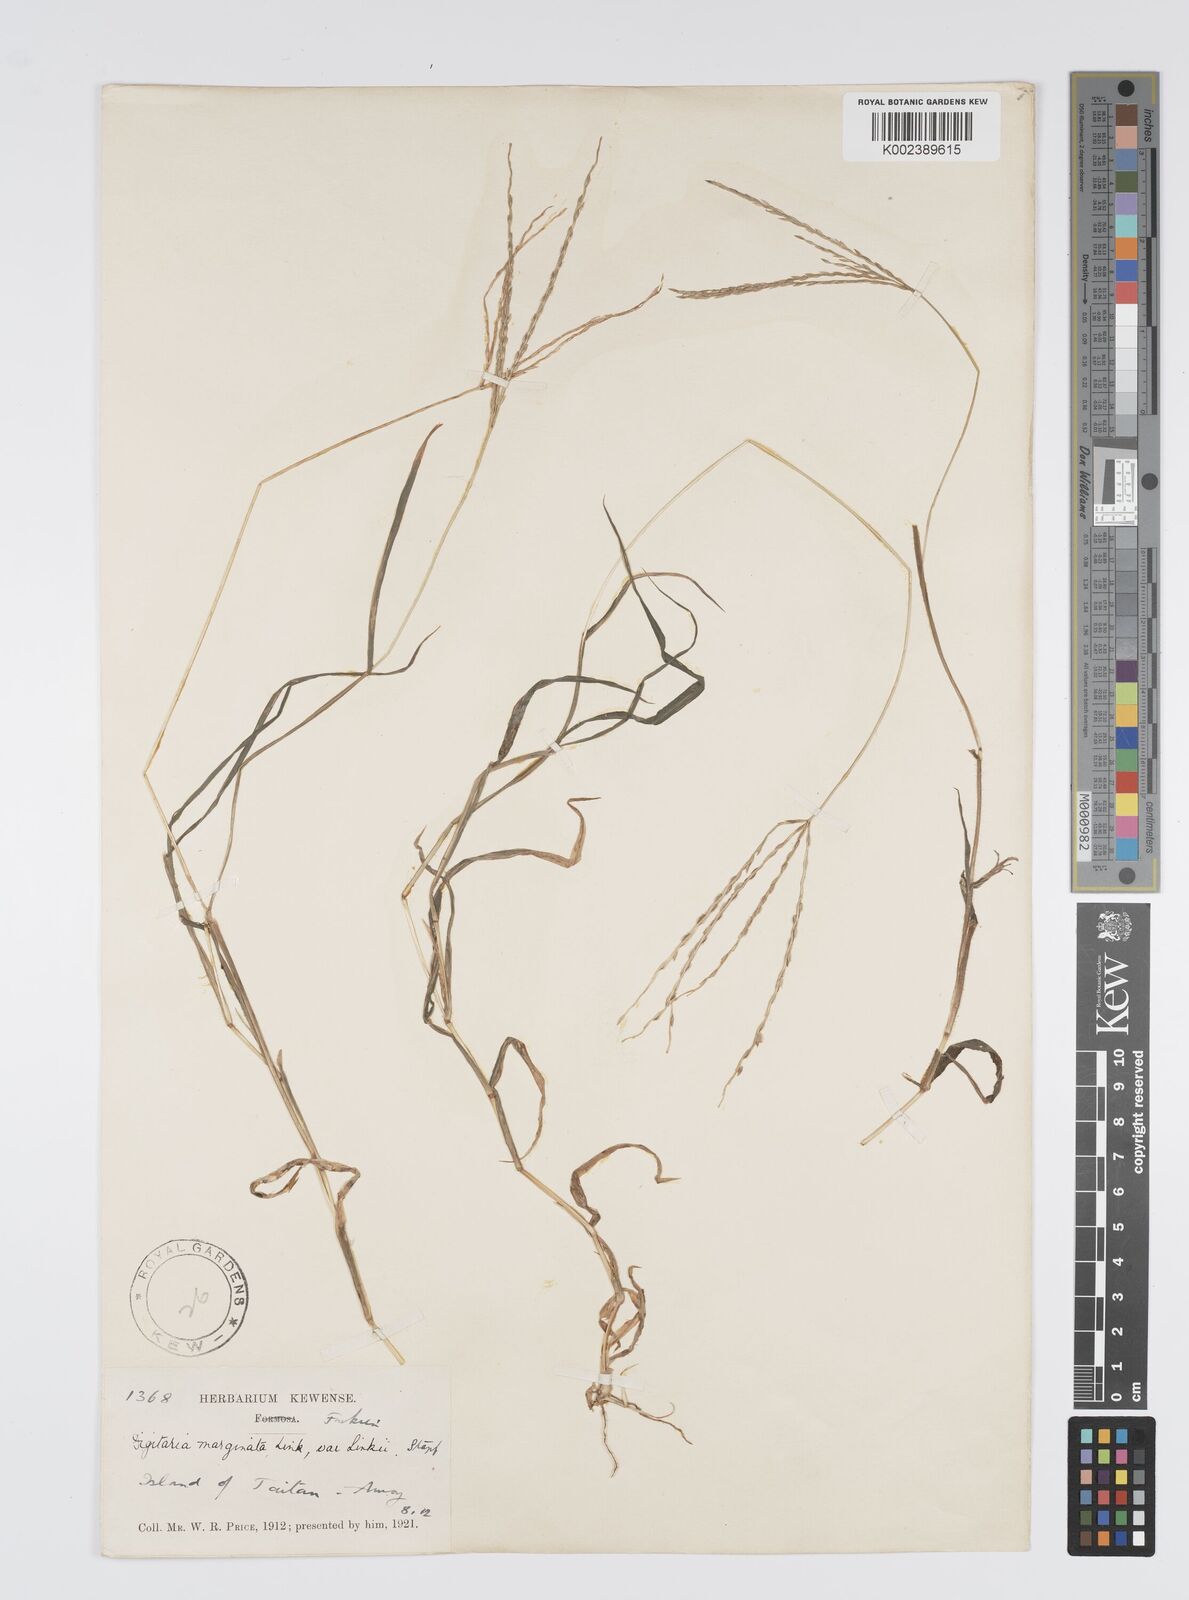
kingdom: Plantae
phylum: Tracheophyta
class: Liliopsida
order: Poales
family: Poaceae
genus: Digitaria
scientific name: Digitaria ciliaris
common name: Tropical finger-grass
